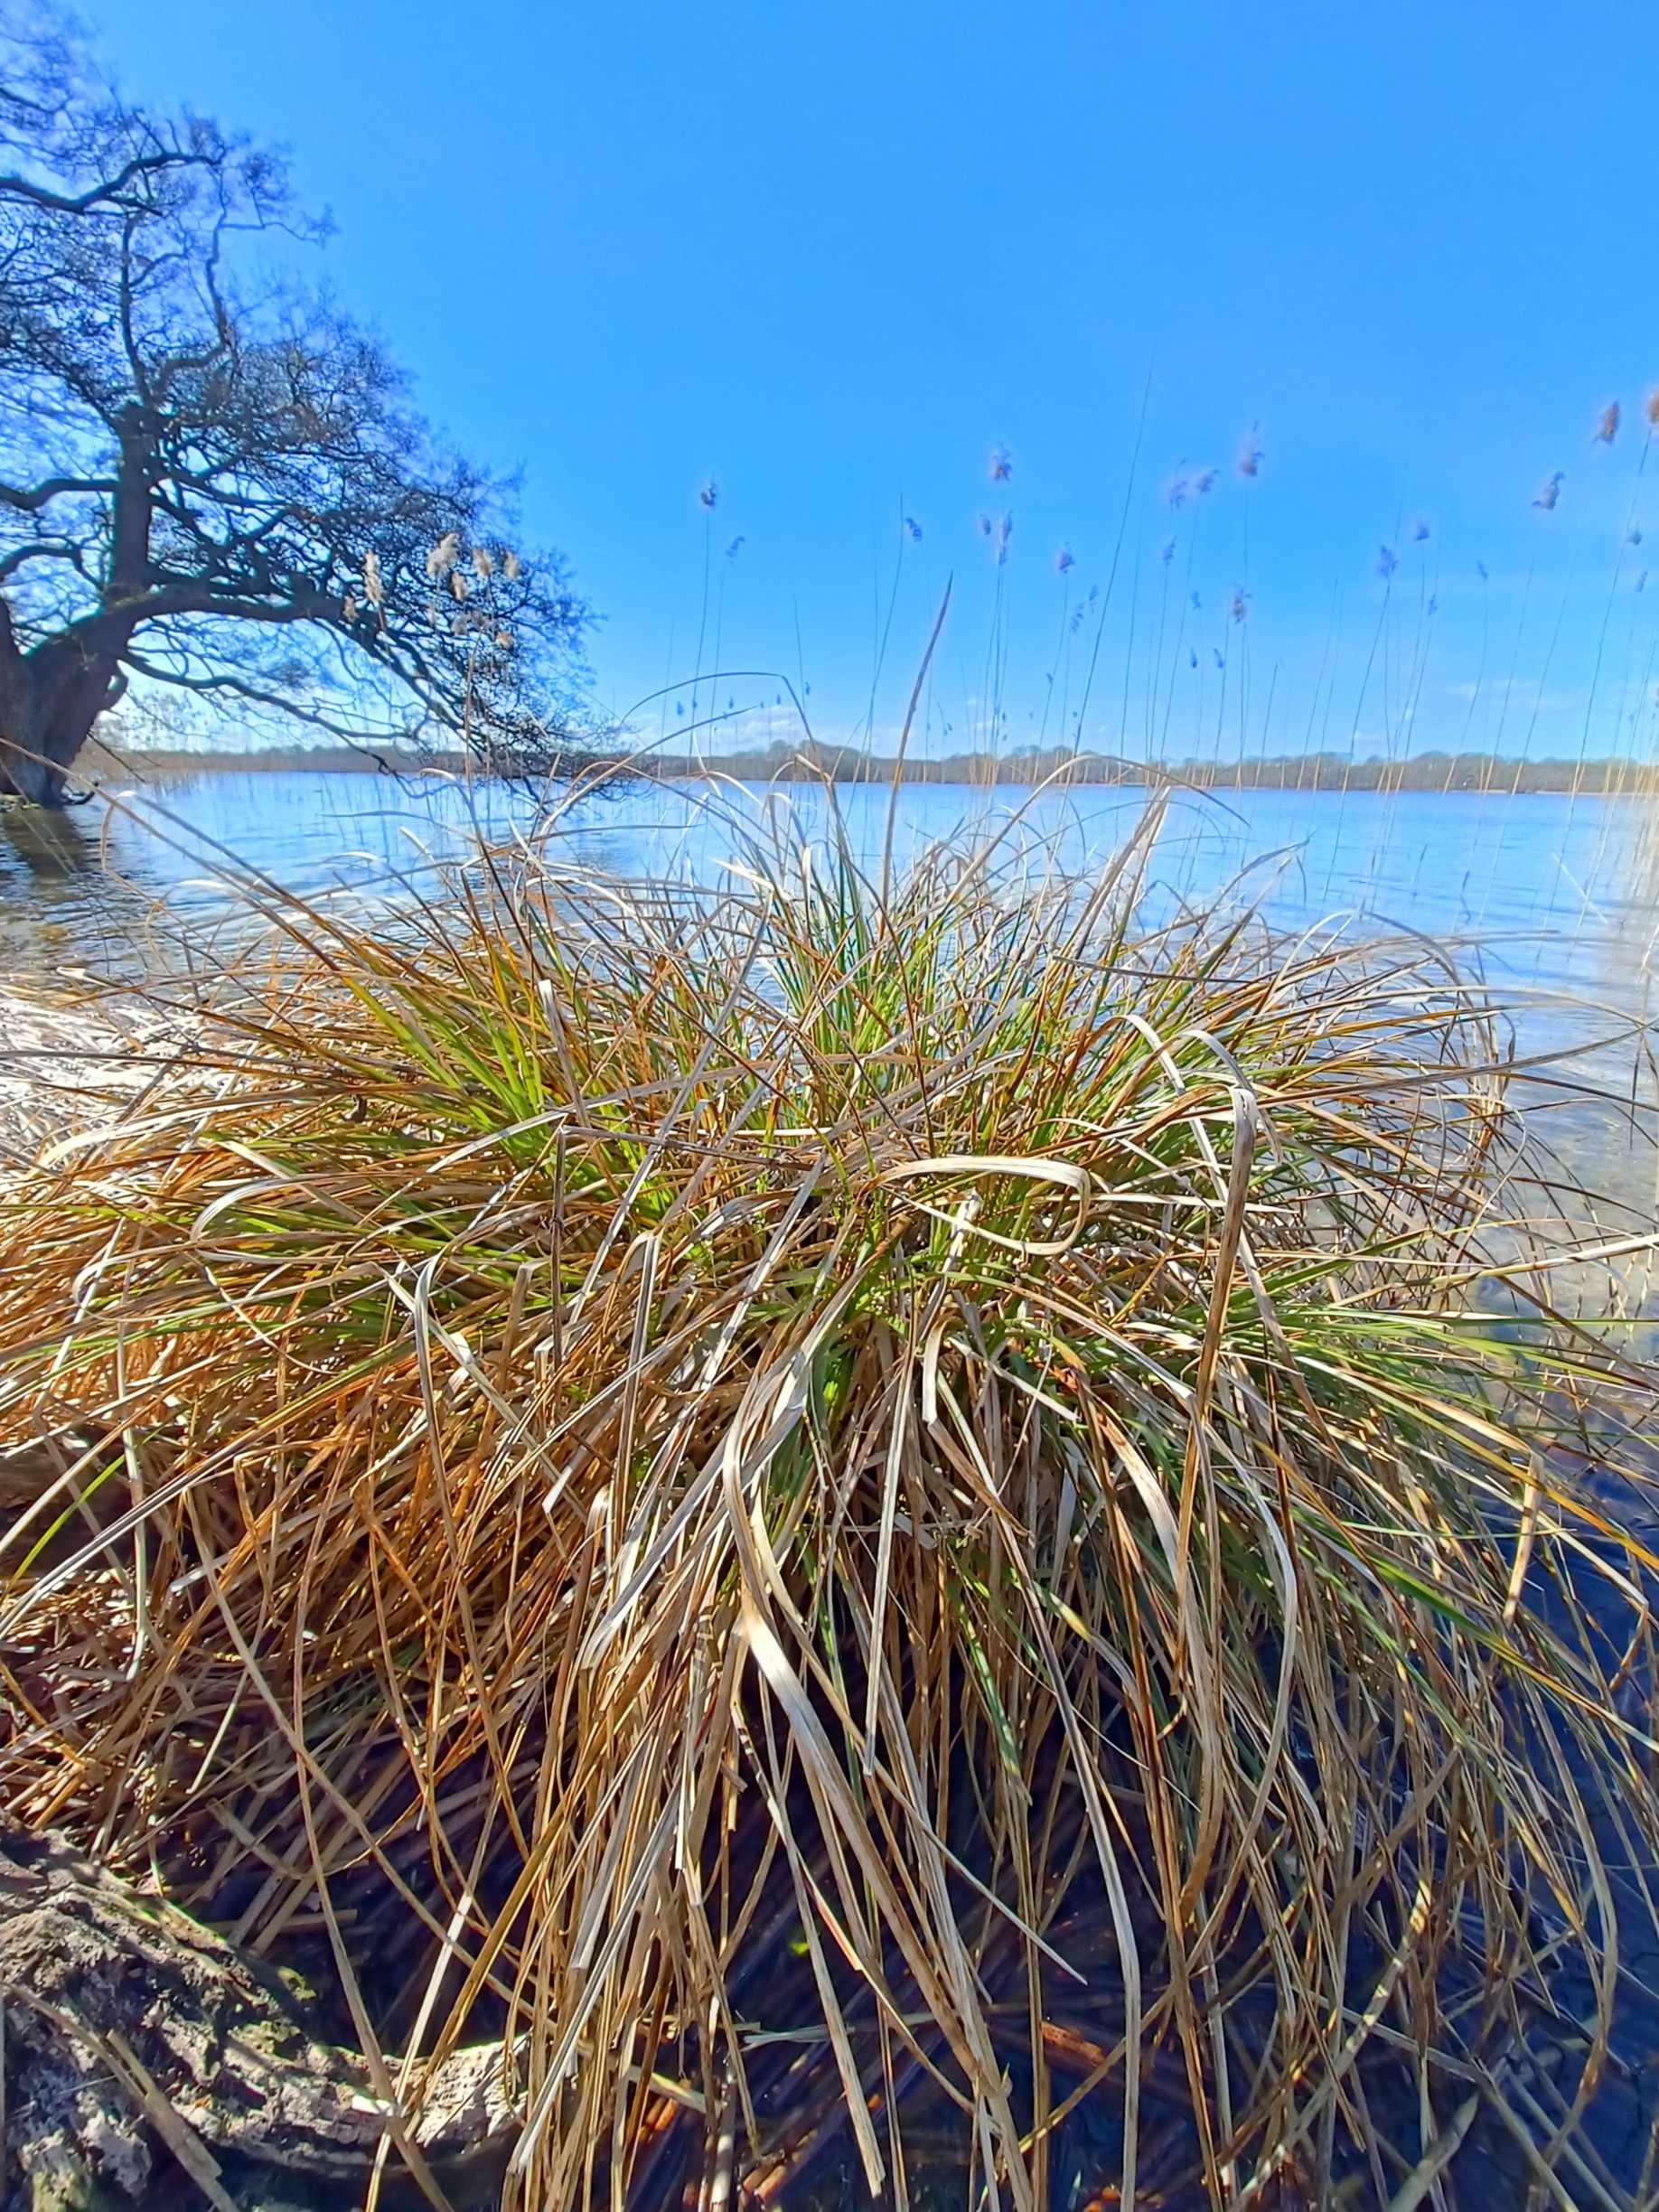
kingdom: Plantae
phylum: Tracheophyta
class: Liliopsida
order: Poales
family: Cyperaceae
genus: Carex
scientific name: Carex paniculata
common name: Top-star
